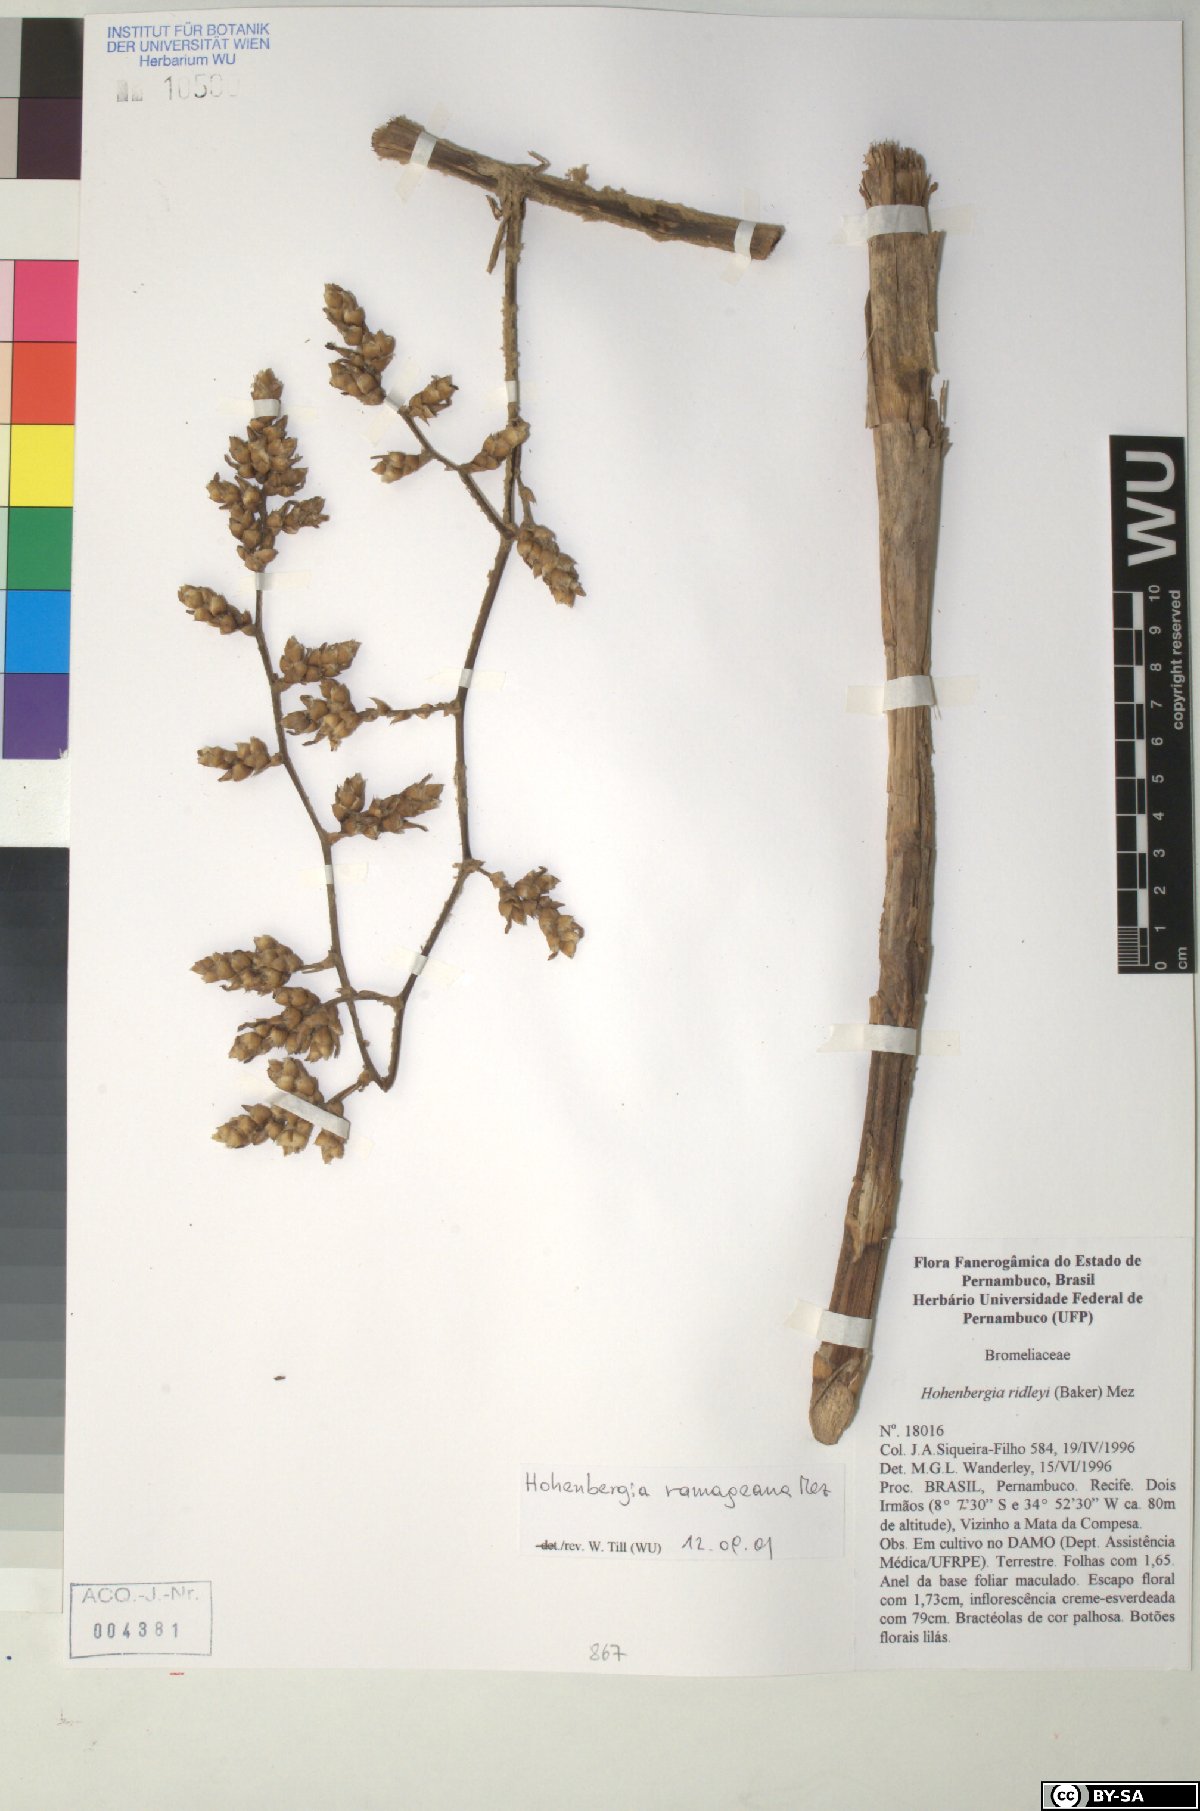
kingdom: Plantae
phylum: Tracheophyta
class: Liliopsida
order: Poales
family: Bromeliaceae
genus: Hohenbergia
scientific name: Hohenbergia ridleyi
